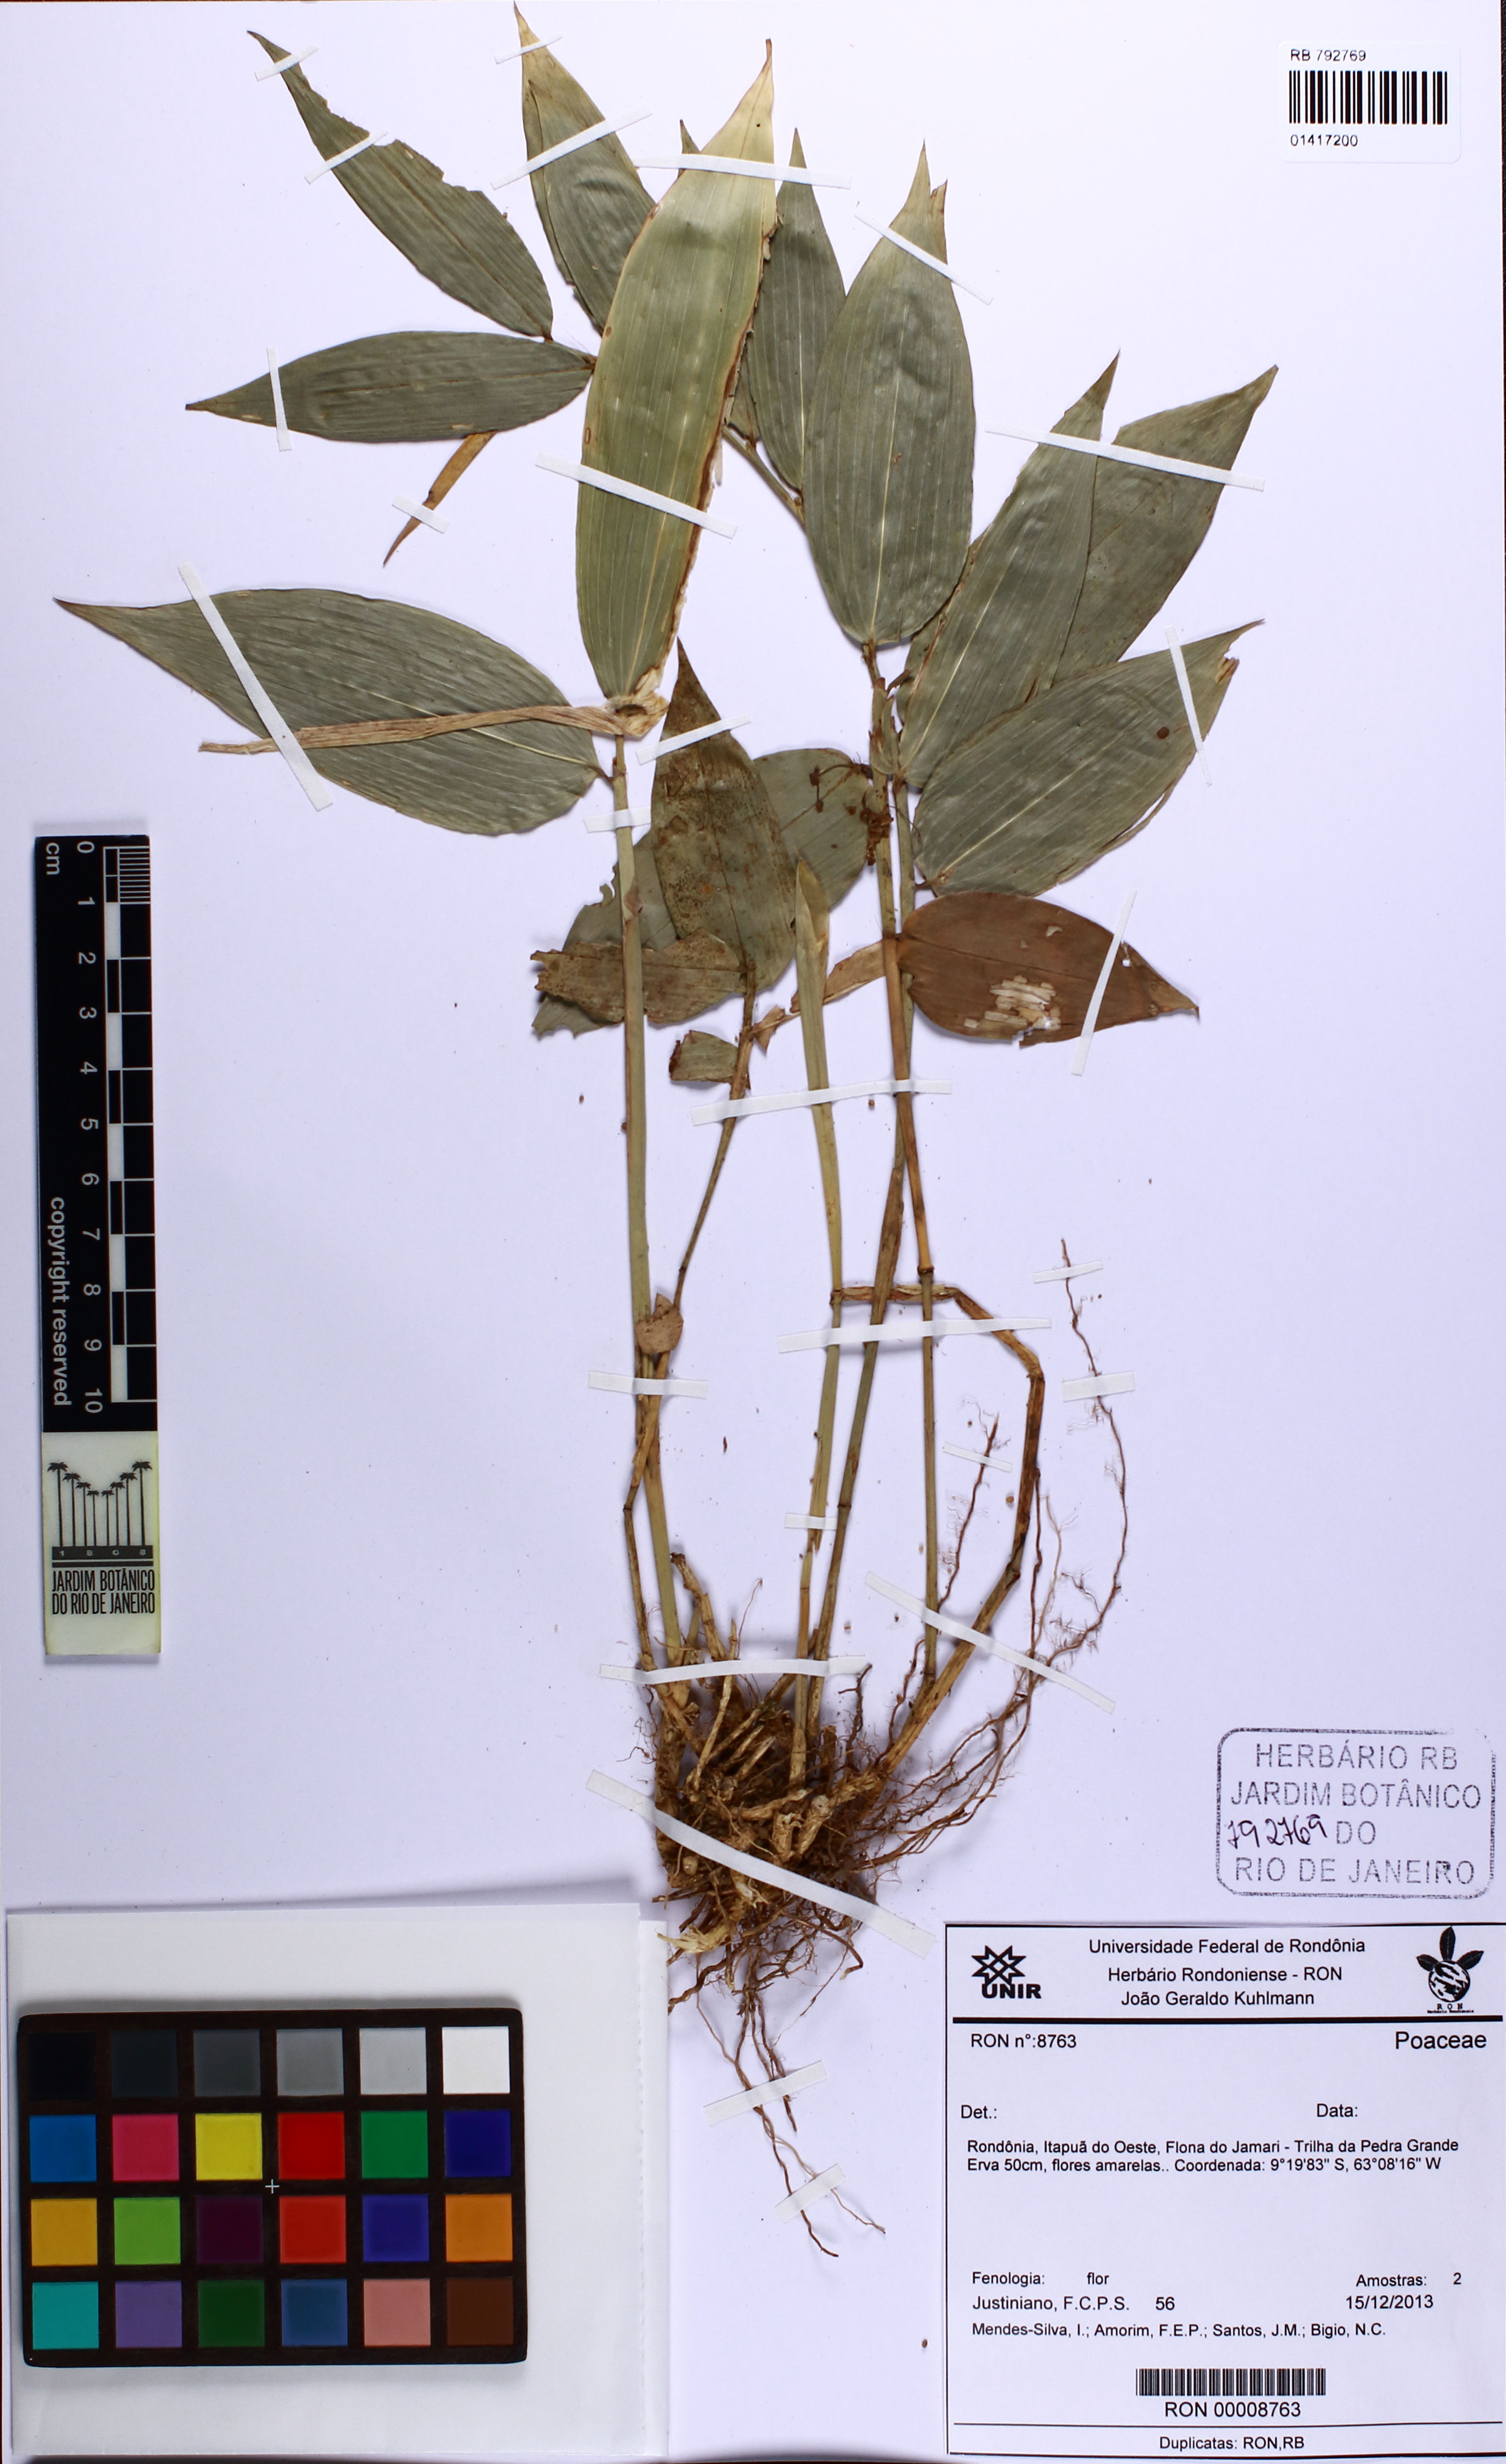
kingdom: Plantae
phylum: Tracheophyta
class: Liliopsida
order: Poales
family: Poaceae
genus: Pariana
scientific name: Pariana bicolor
